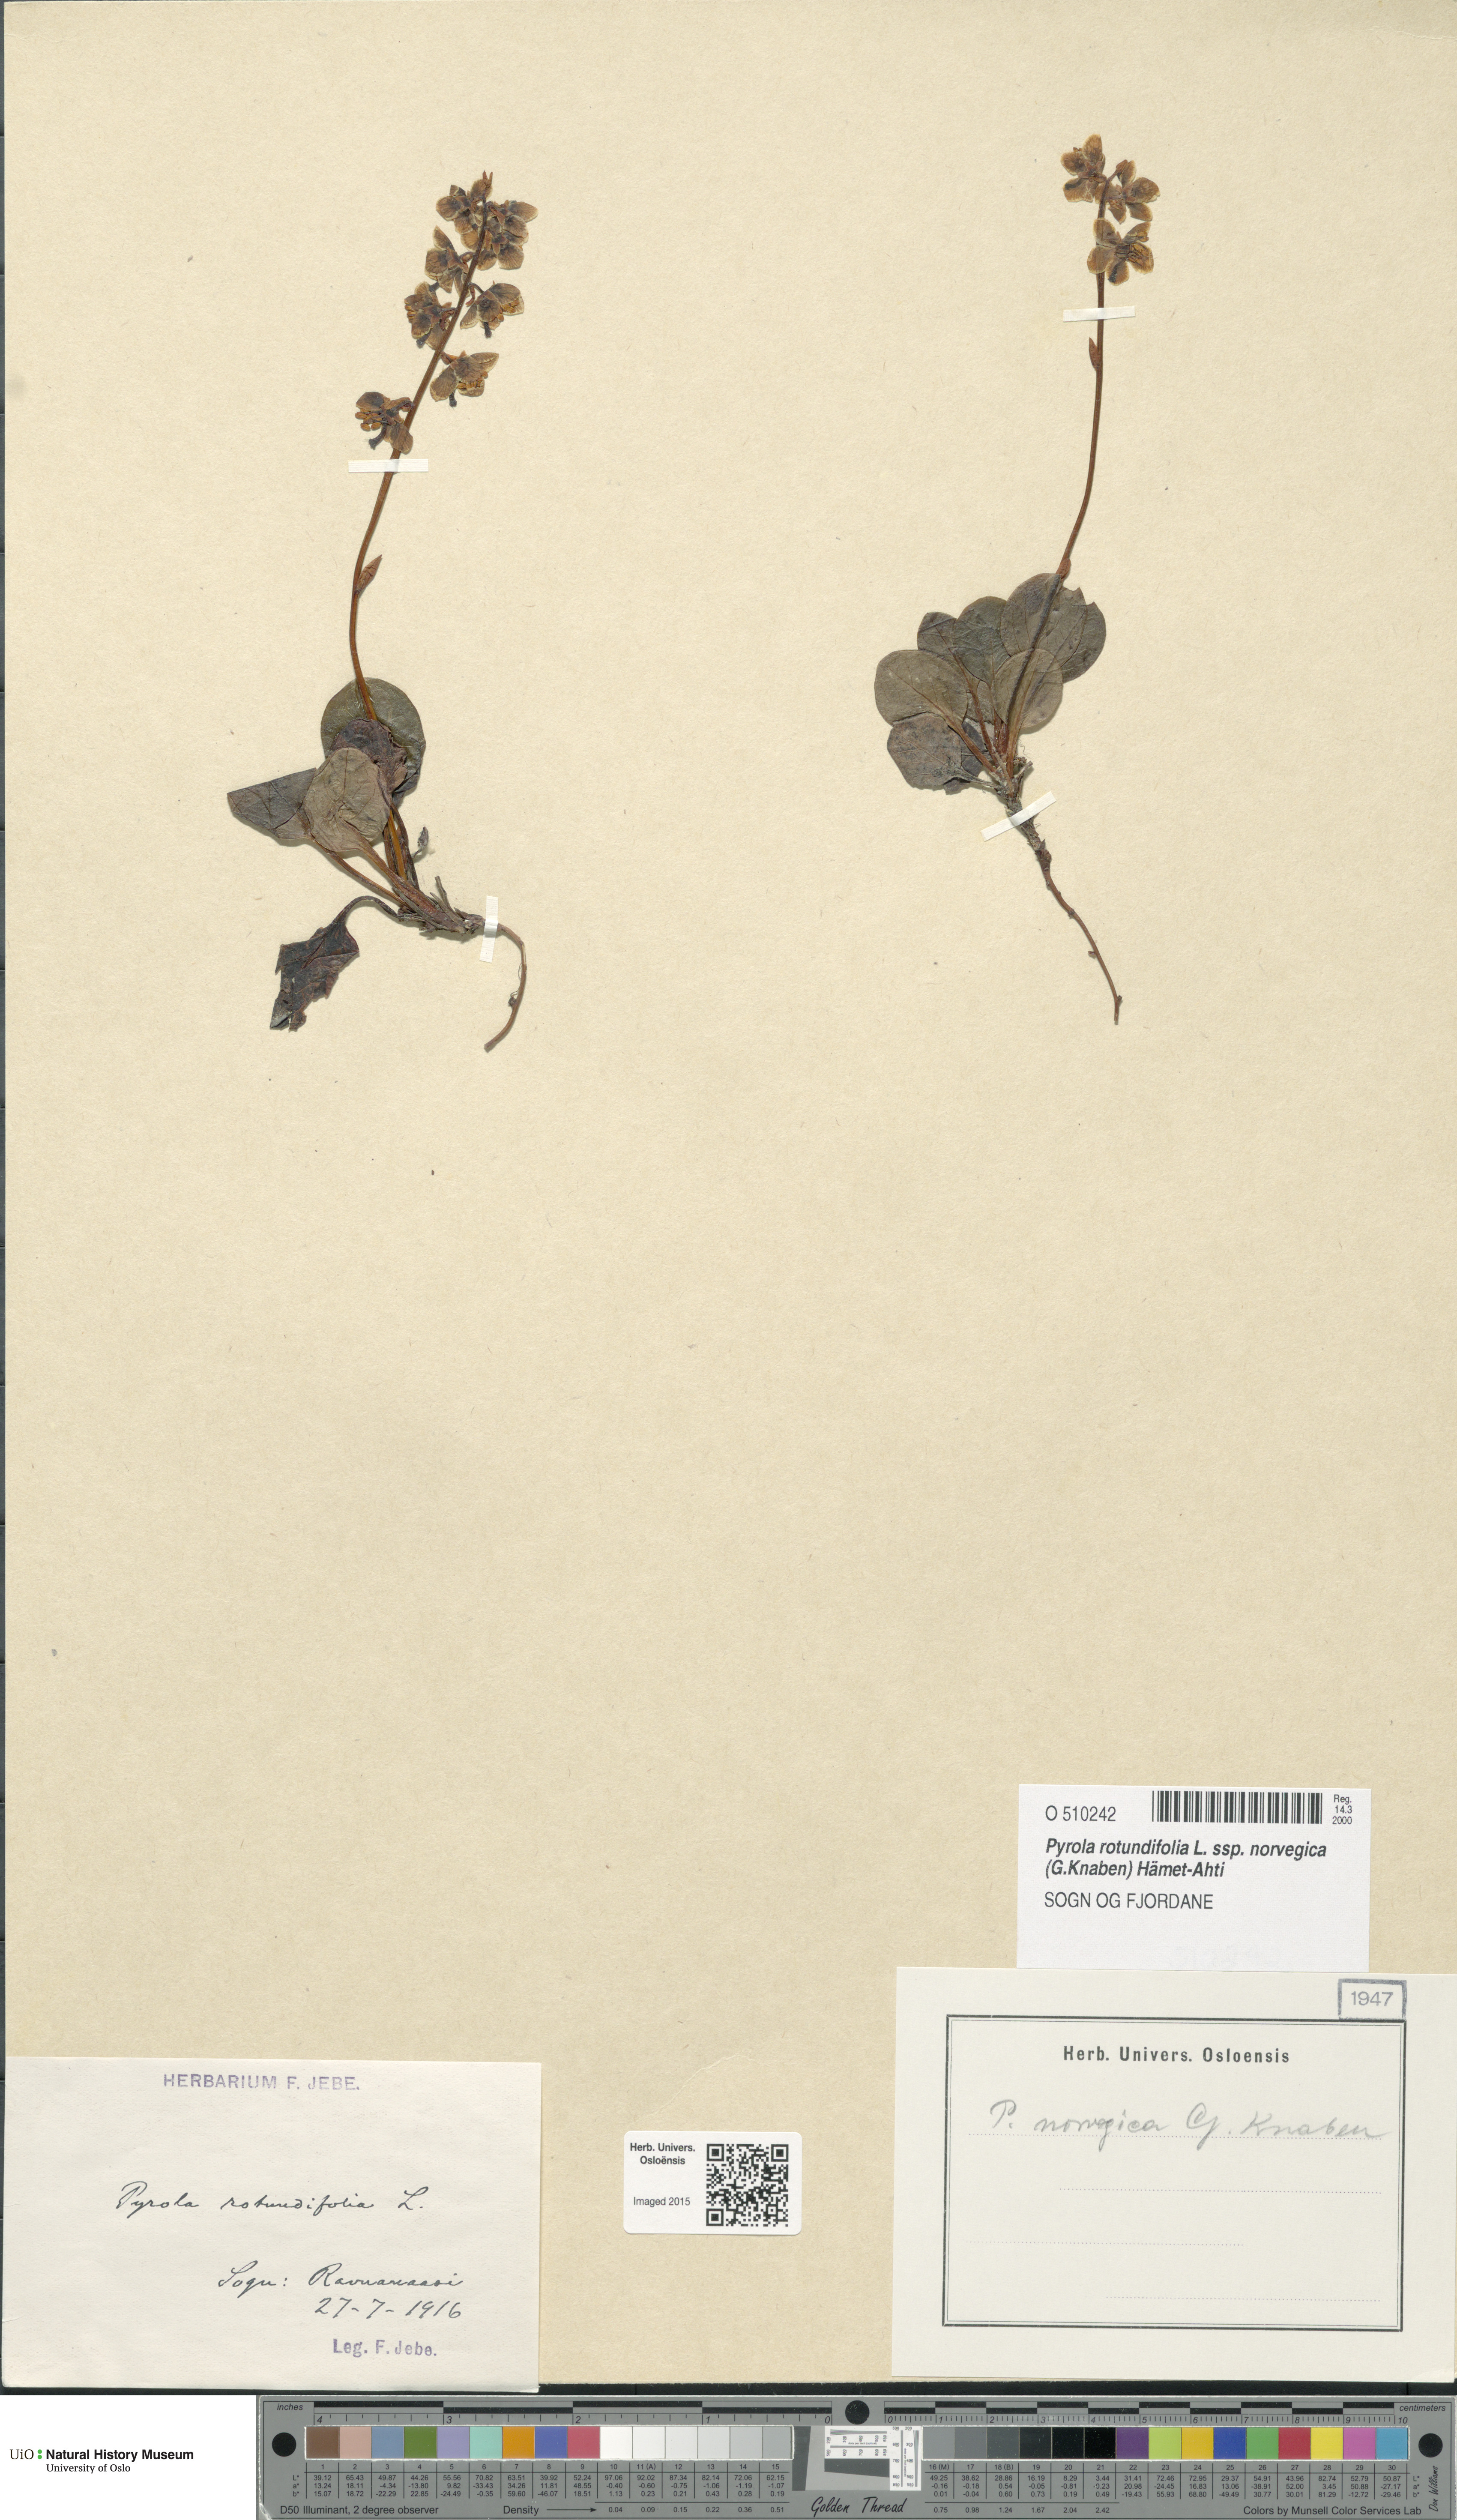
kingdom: Plantae
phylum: Tracheophyta
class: Magnoliopsida
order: Ericales
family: Ericaceae
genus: Pyrola
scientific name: Pyrola rotundifolia
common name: Round-leaved wintergreen
